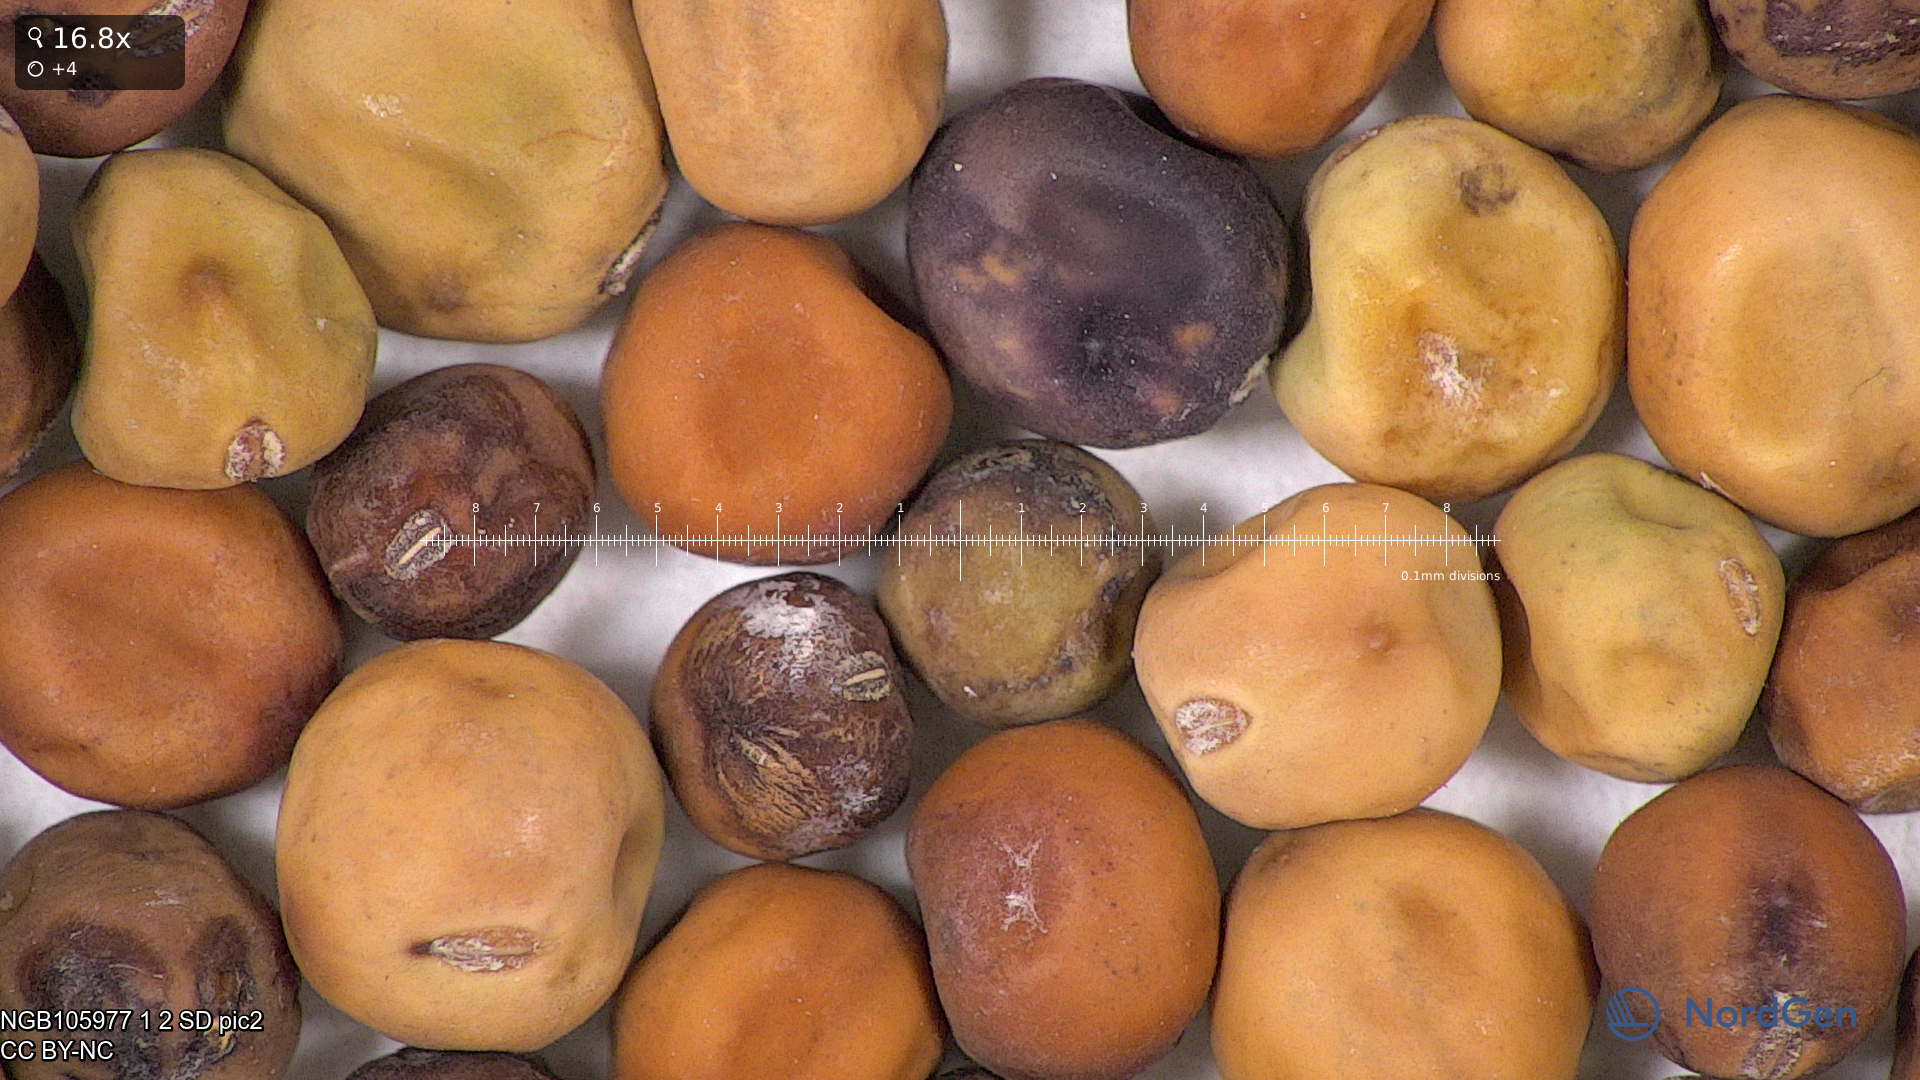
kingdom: Plantae
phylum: Tracheophyta
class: Magnoliopsida
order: Fabales
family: Fabaceae
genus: Lathyrus
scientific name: Lathyrus oleraceus
